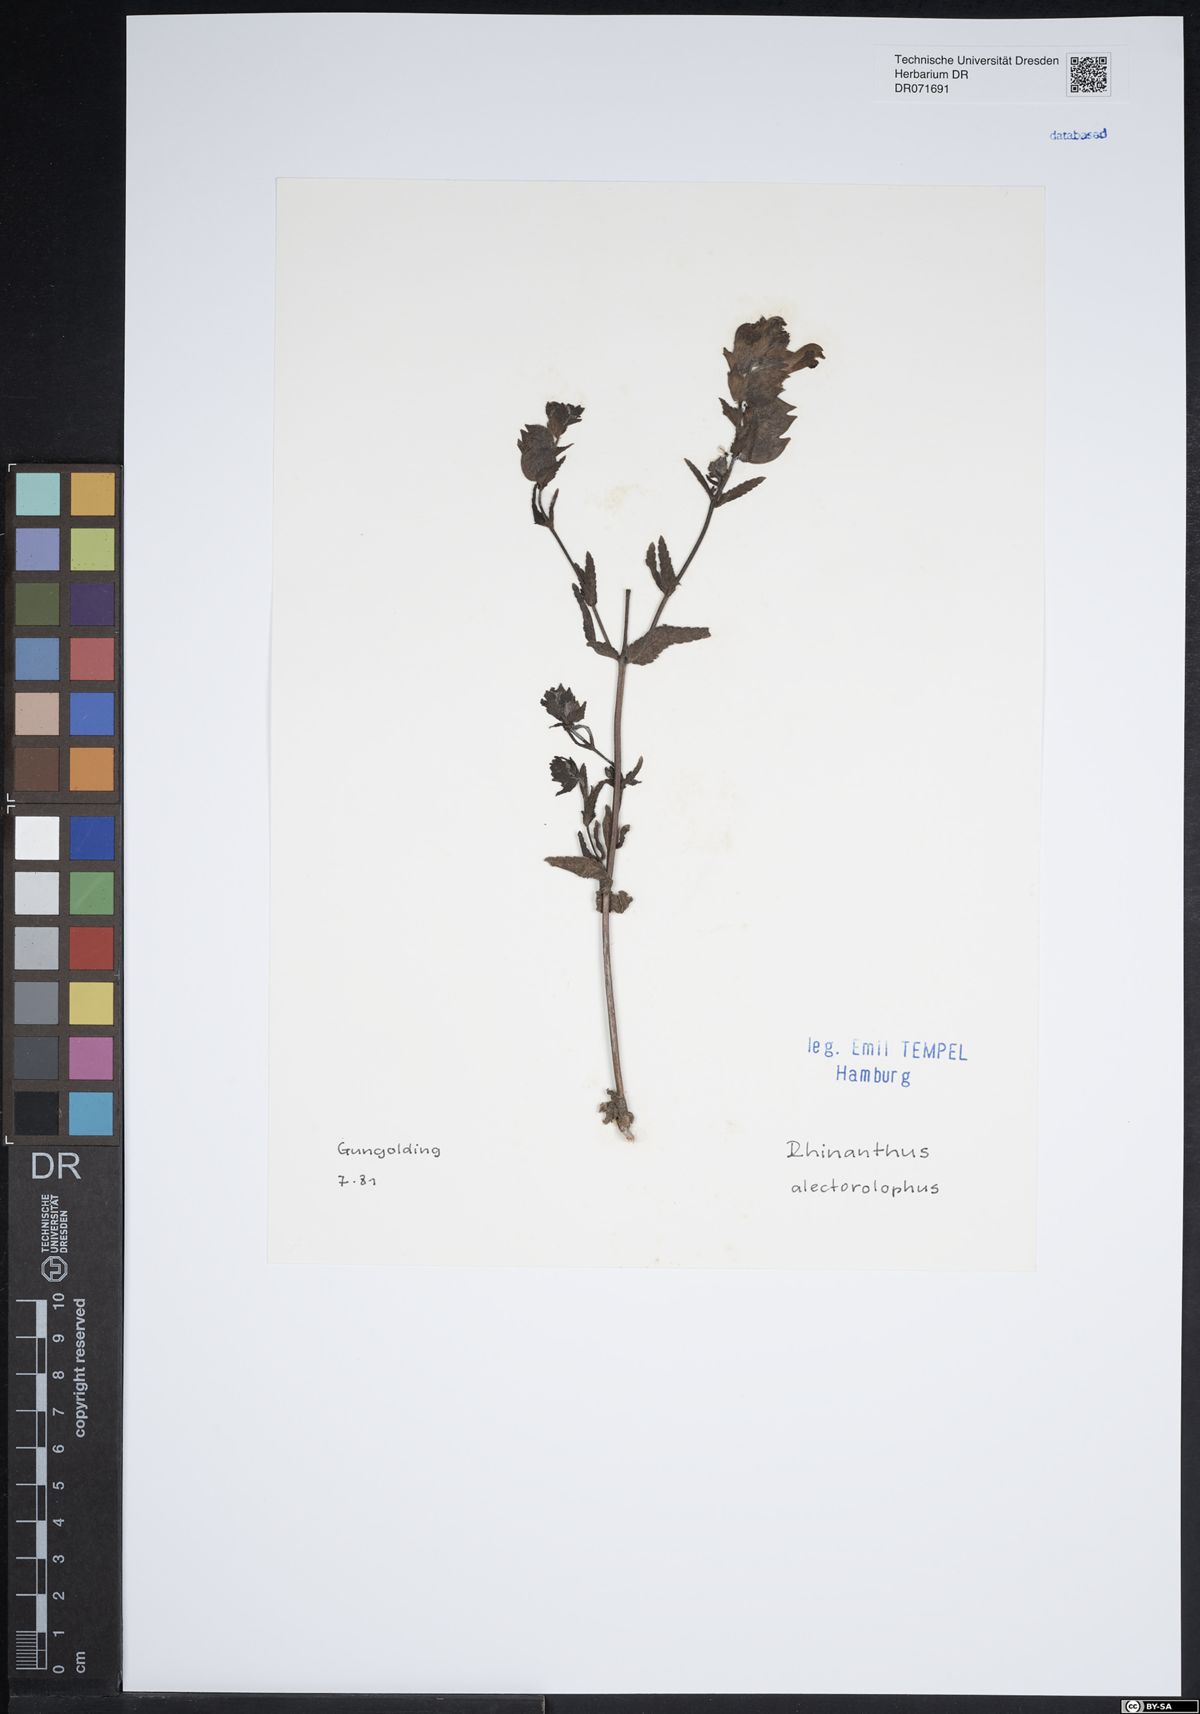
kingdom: Plantae
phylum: Tracheophyta
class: Magnoliopsida
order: Lamiales
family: Orobanchaceae
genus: Rhinanthus
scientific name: Rhinanthus alectorolophus
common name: Greater yellow-rattle
